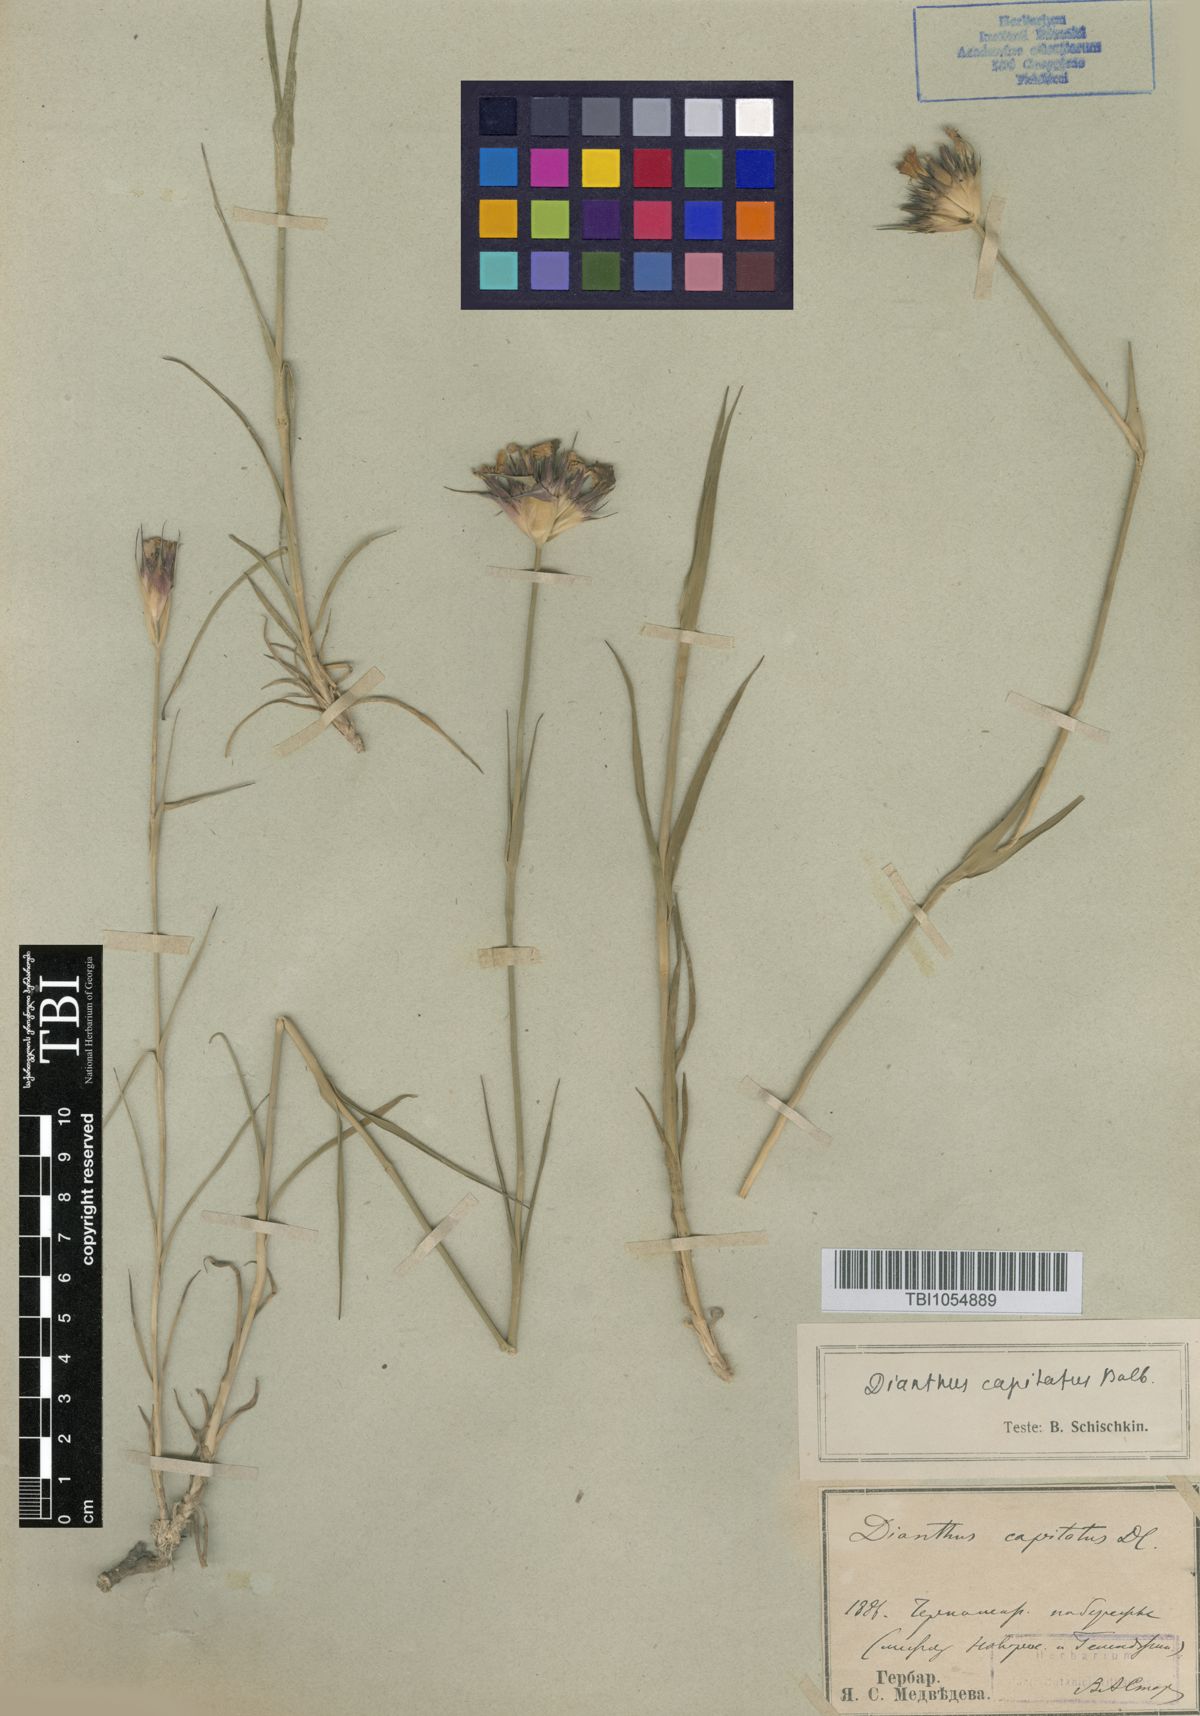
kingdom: Plantae
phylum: Tracheophyta
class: Magnoliopsida
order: Caryophyllales
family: Caryophyllaceae
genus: Dianthus
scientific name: Dianthus capitatus
